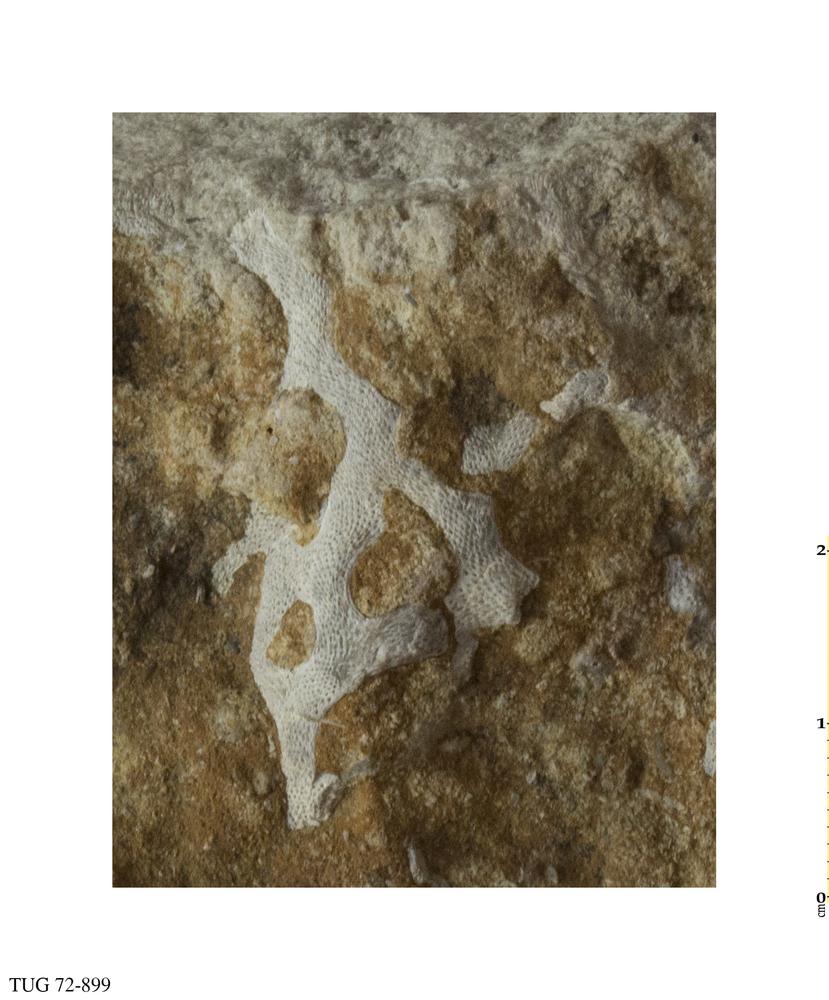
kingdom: Animalia
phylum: Bryozoa
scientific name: Bryozoa
